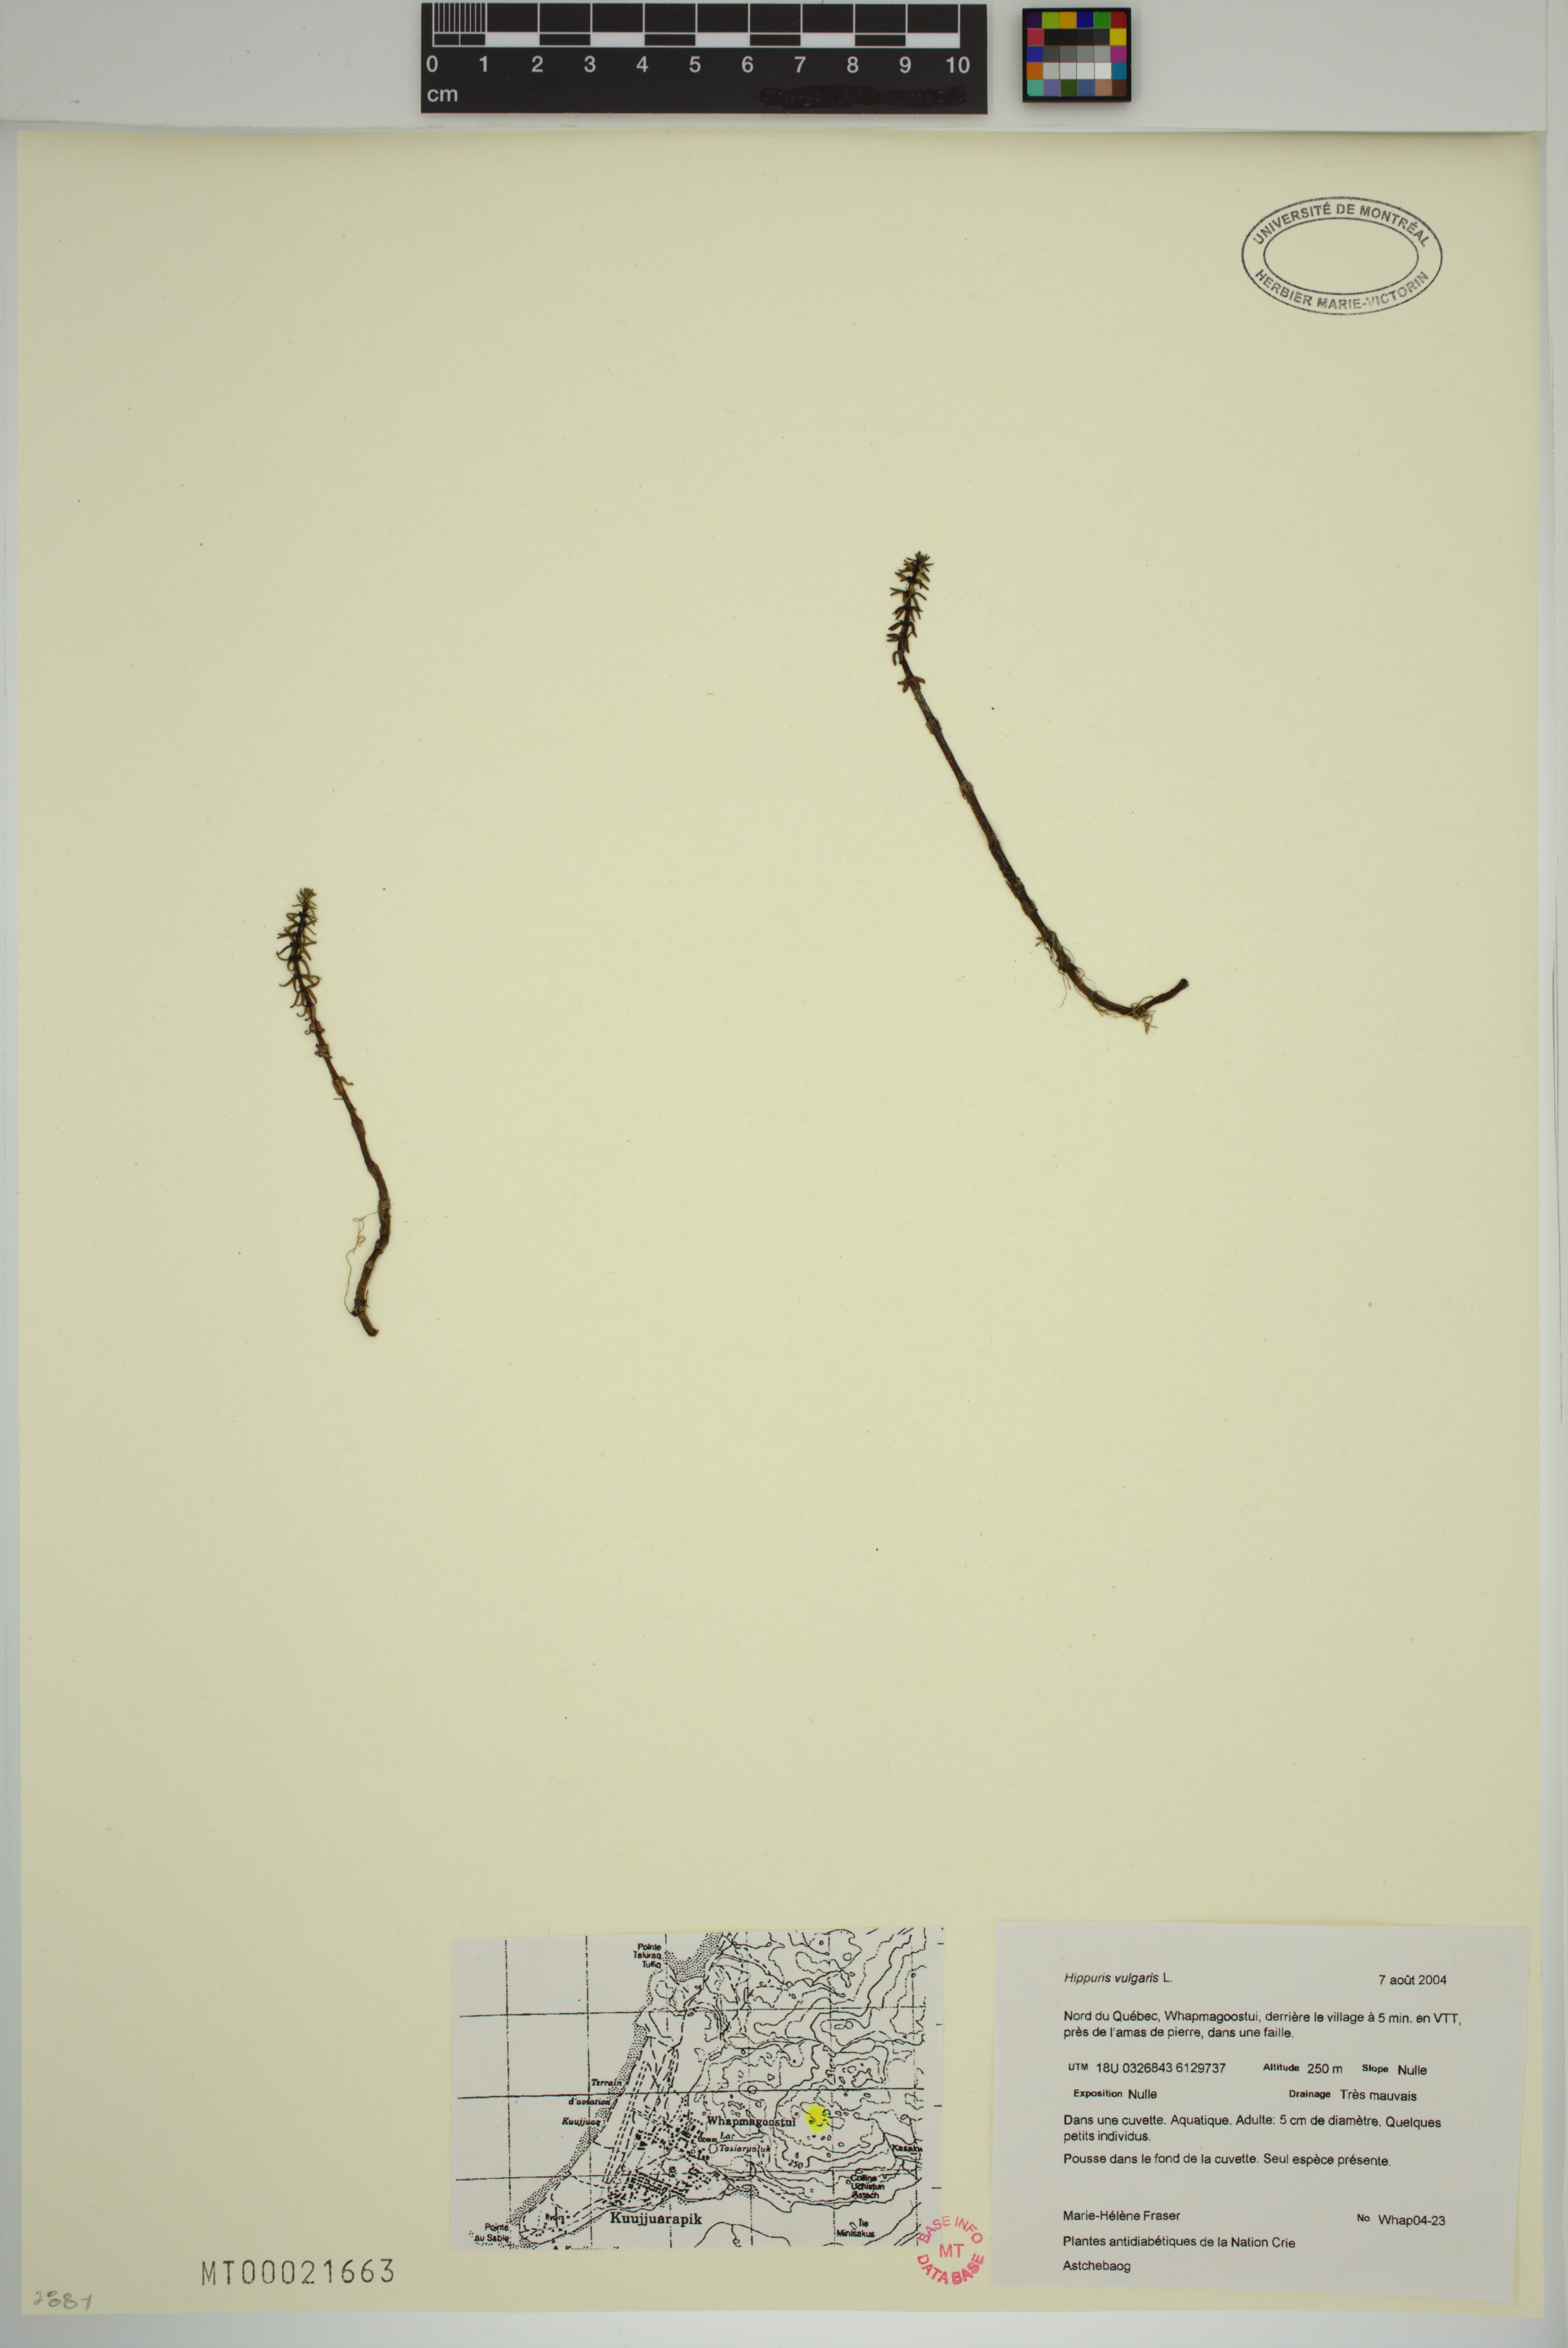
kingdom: Plantae
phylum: Tracheophyta
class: Magnoliopsida
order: Lamiales
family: Plantaginaceae
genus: Hippuris
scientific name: Hippuris vulgaris
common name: Mare's-tail
